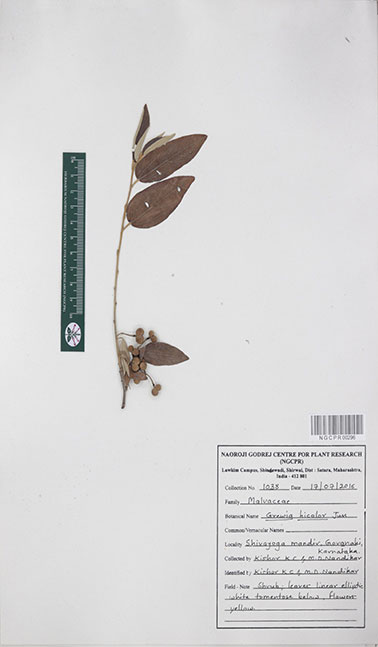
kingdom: Plantae
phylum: Tracheophyta
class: Magnoliopsida
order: Malvales
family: Malvaceae
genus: Grewia
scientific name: Grewia bicolor
